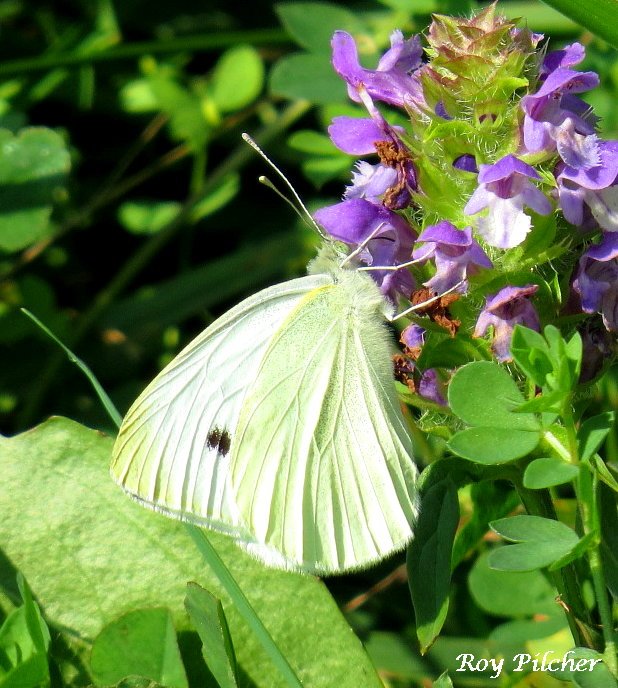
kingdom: Animalia
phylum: Arthropoda
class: Insecta
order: Lepidoptera
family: Pieridae
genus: Pieris
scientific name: Pieris rapae
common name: Cabbage White
